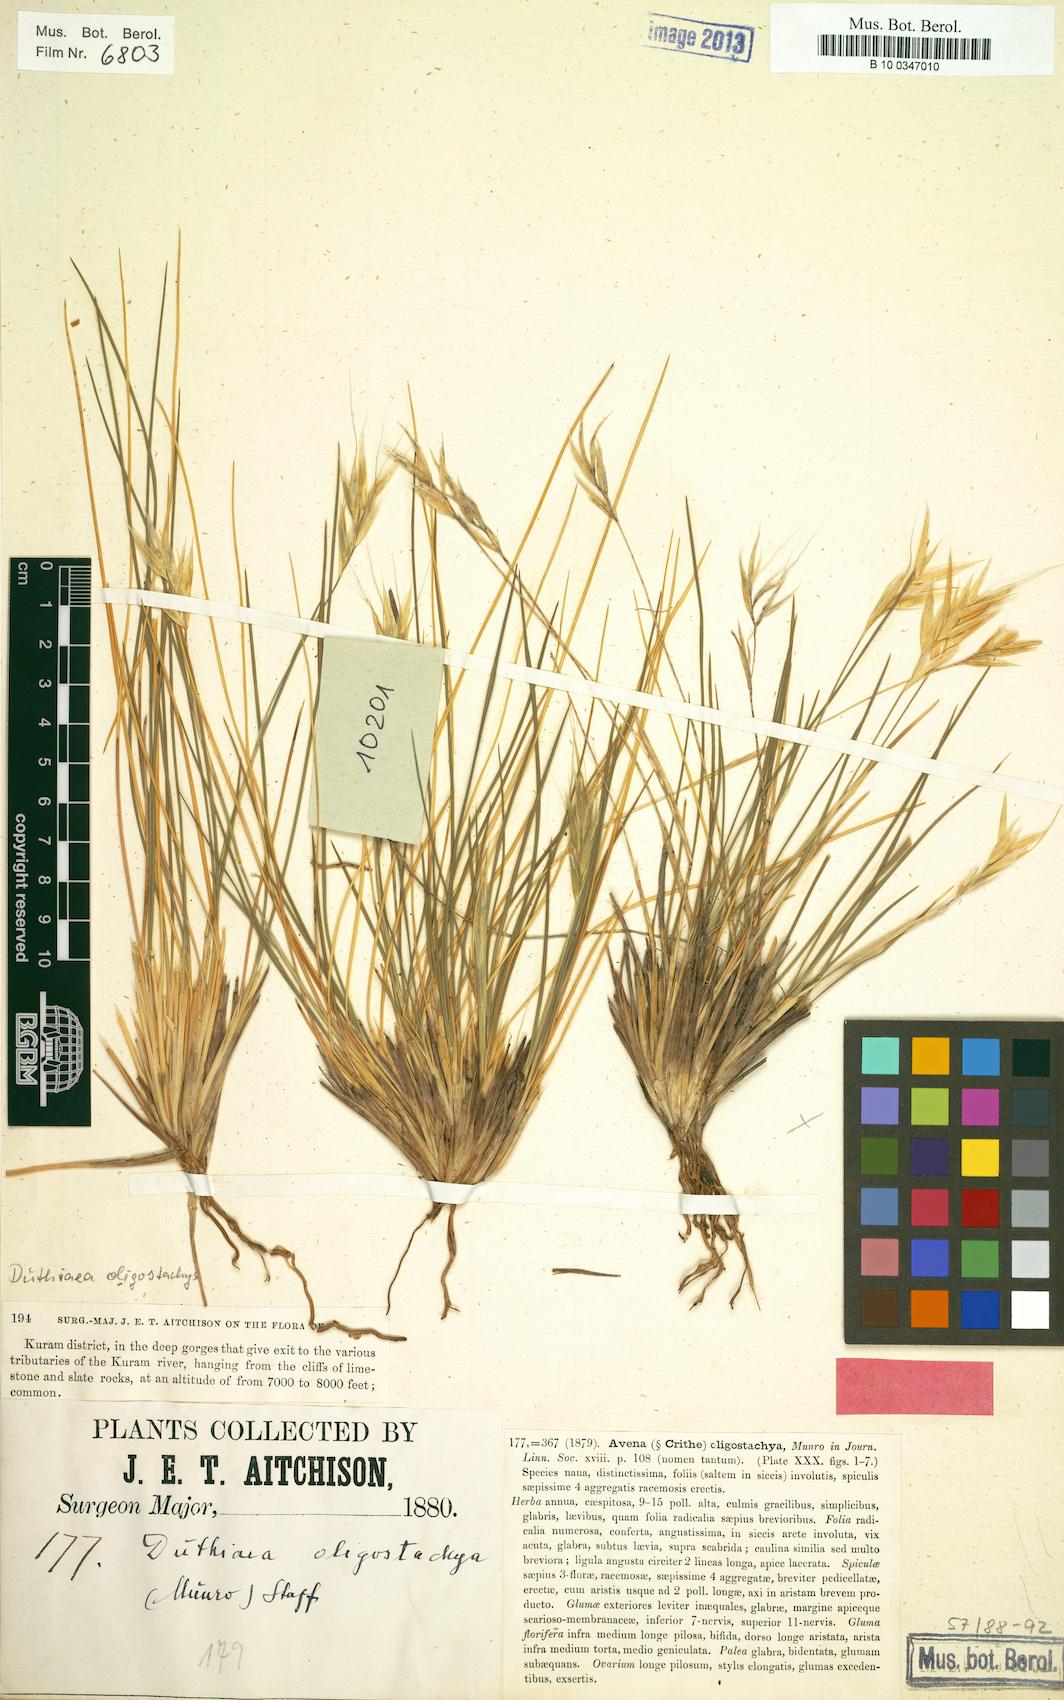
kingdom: Plantae
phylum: Tracheophyta
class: Liliopsida
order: Poales
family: Poaceae
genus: Duthiea
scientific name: Duthiea oligostachya
